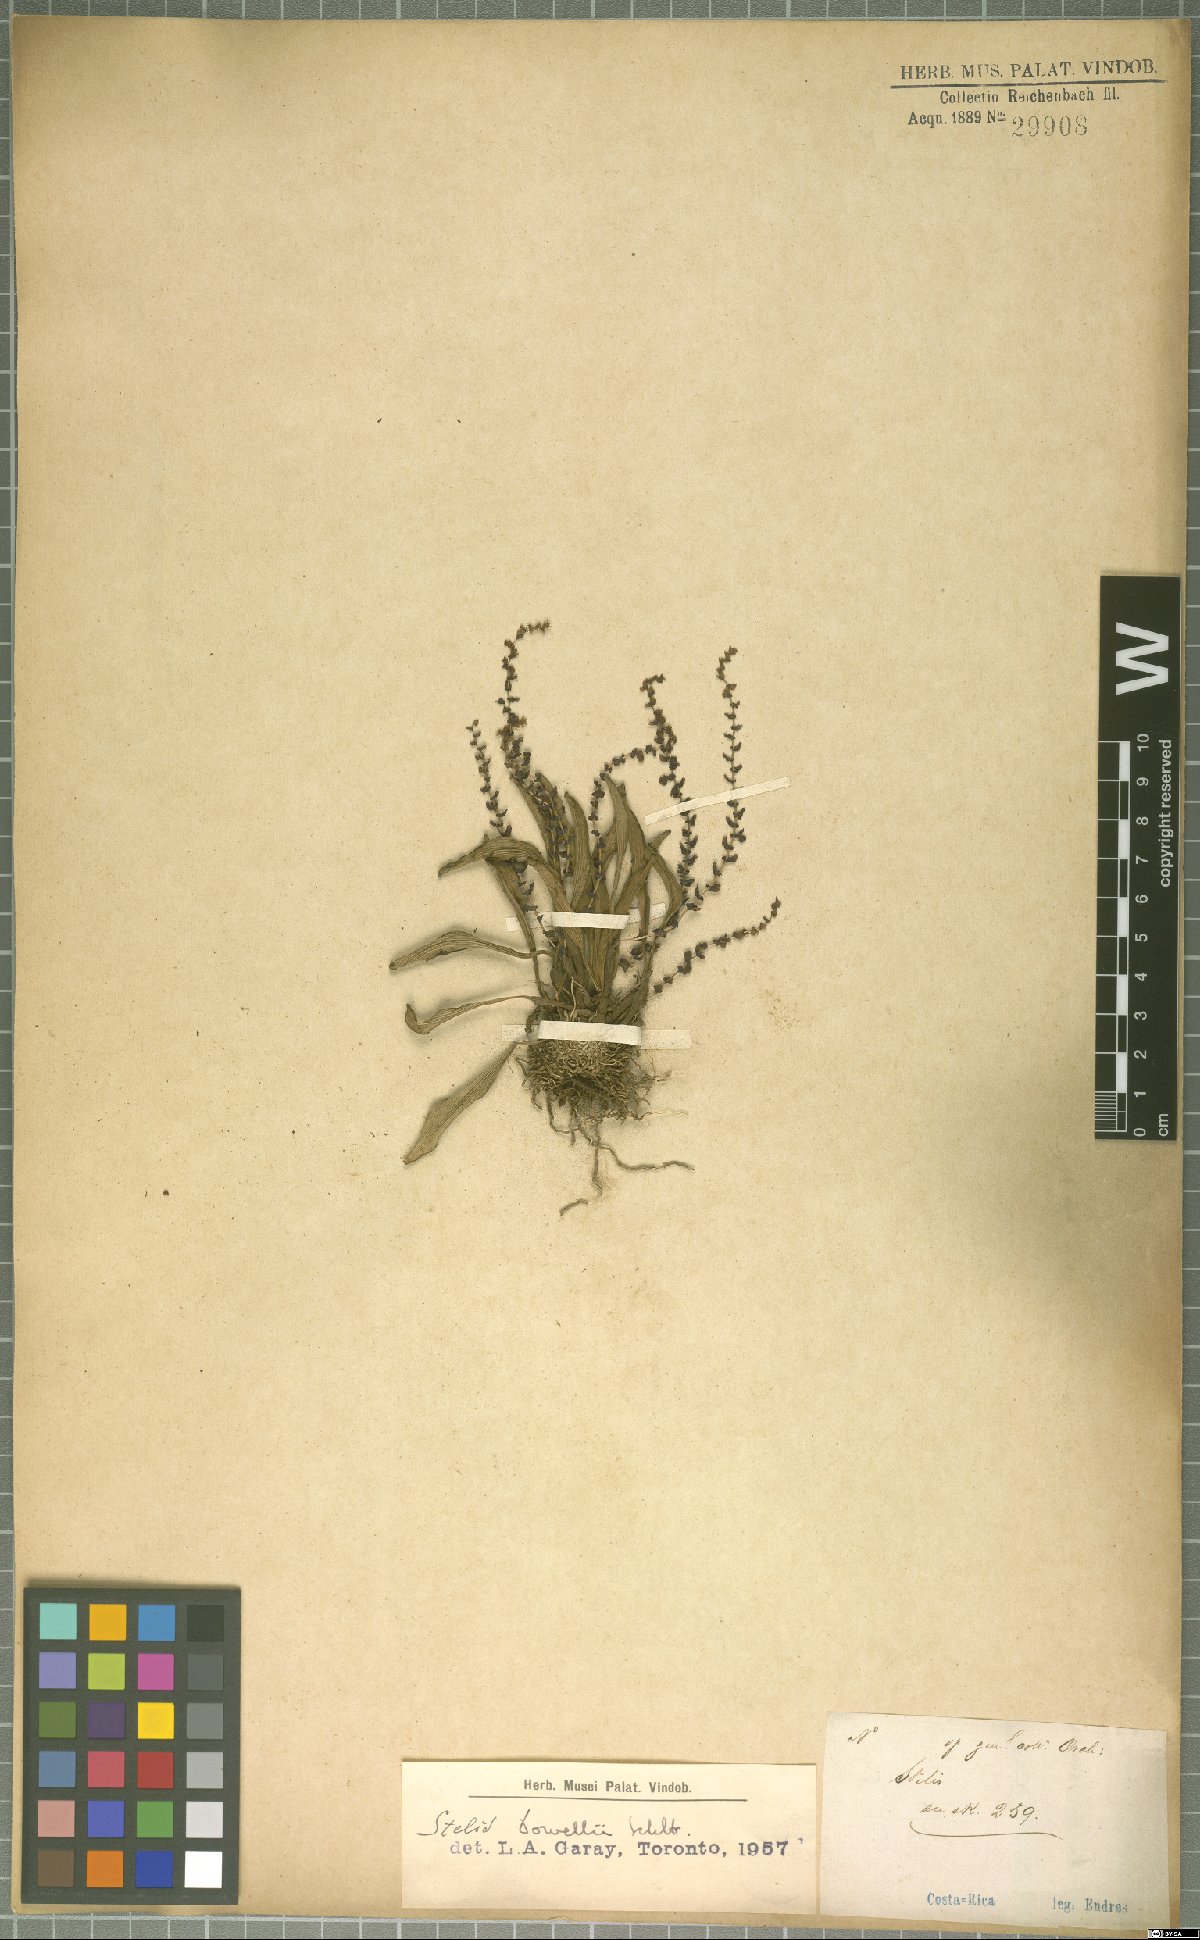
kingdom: Plantae
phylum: Tracheophyta
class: Liliopsida
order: Asparagales
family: Orchidaceae
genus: Stelis
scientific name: Stelis powellii
